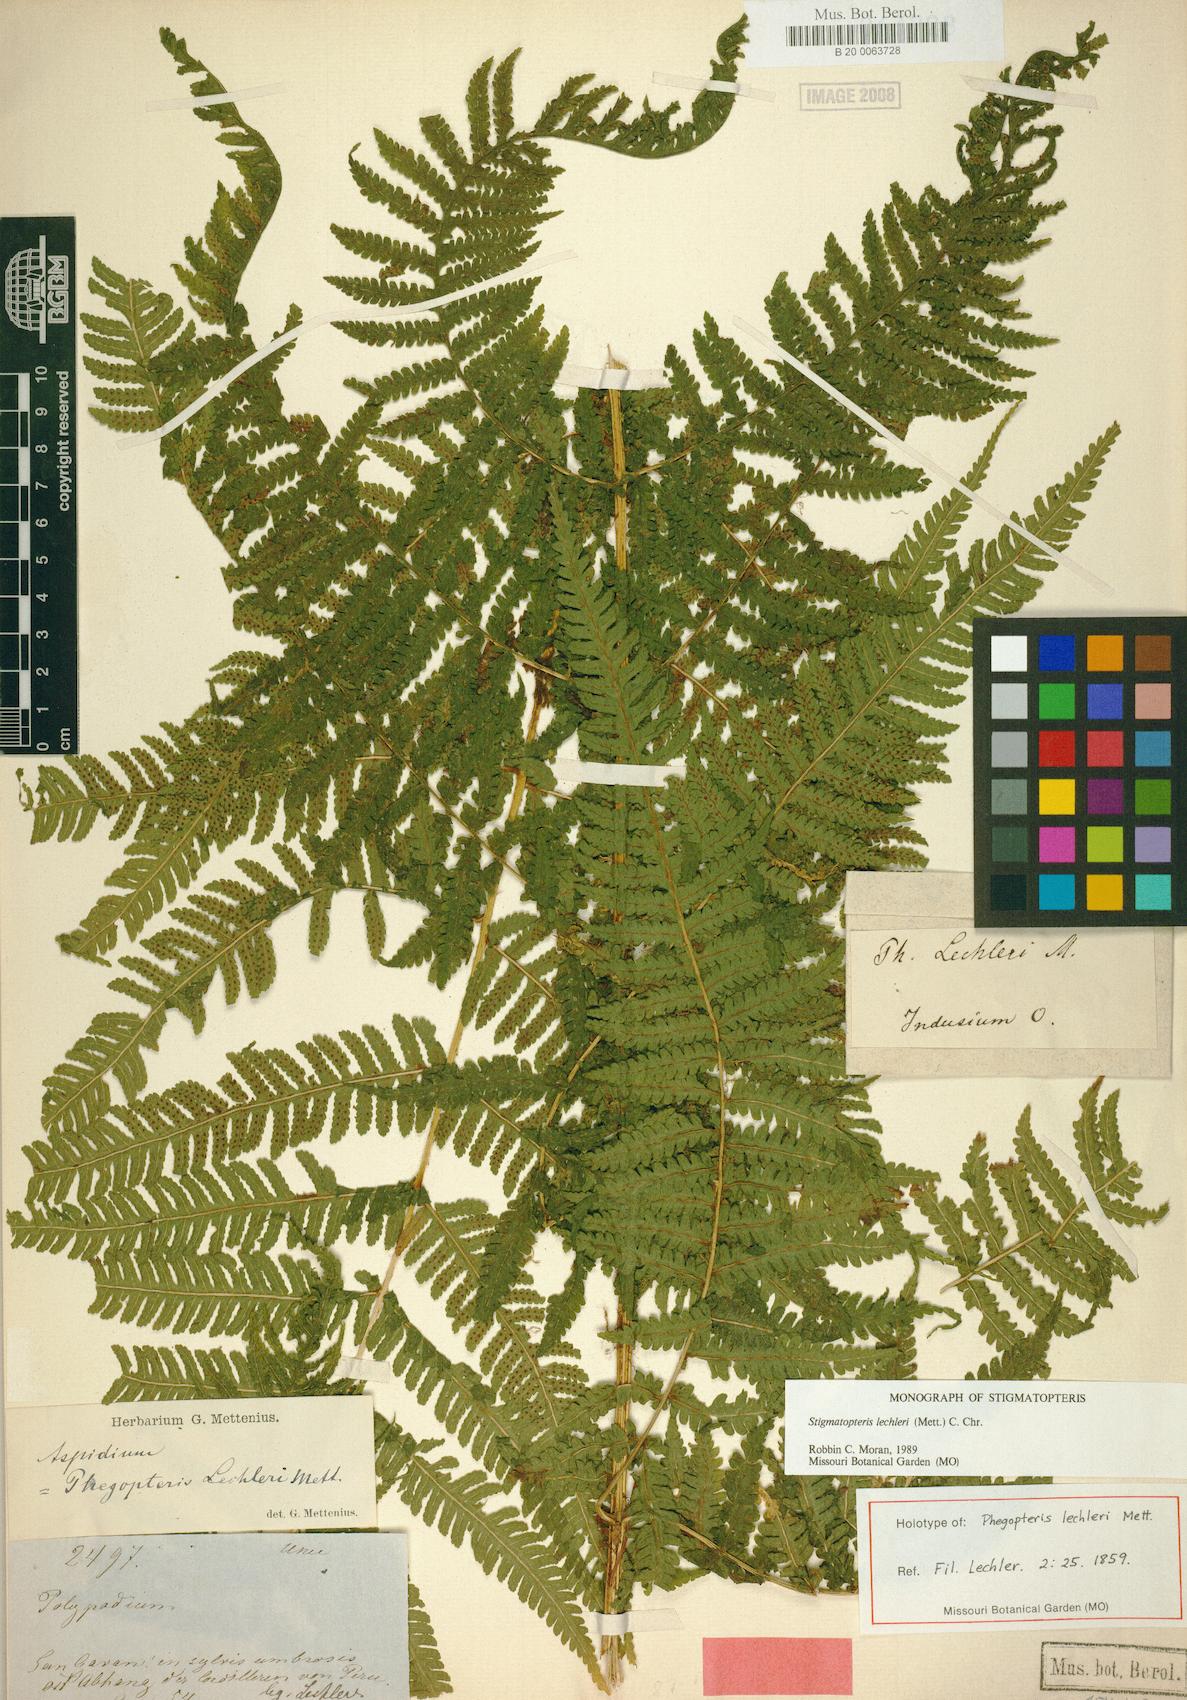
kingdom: Plantae
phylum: Tracheophyta
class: Polypodiopsida
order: Polypodiales
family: Dryopteridaceae
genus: Stigmatopteris
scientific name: Stigmatopteris lechleri
